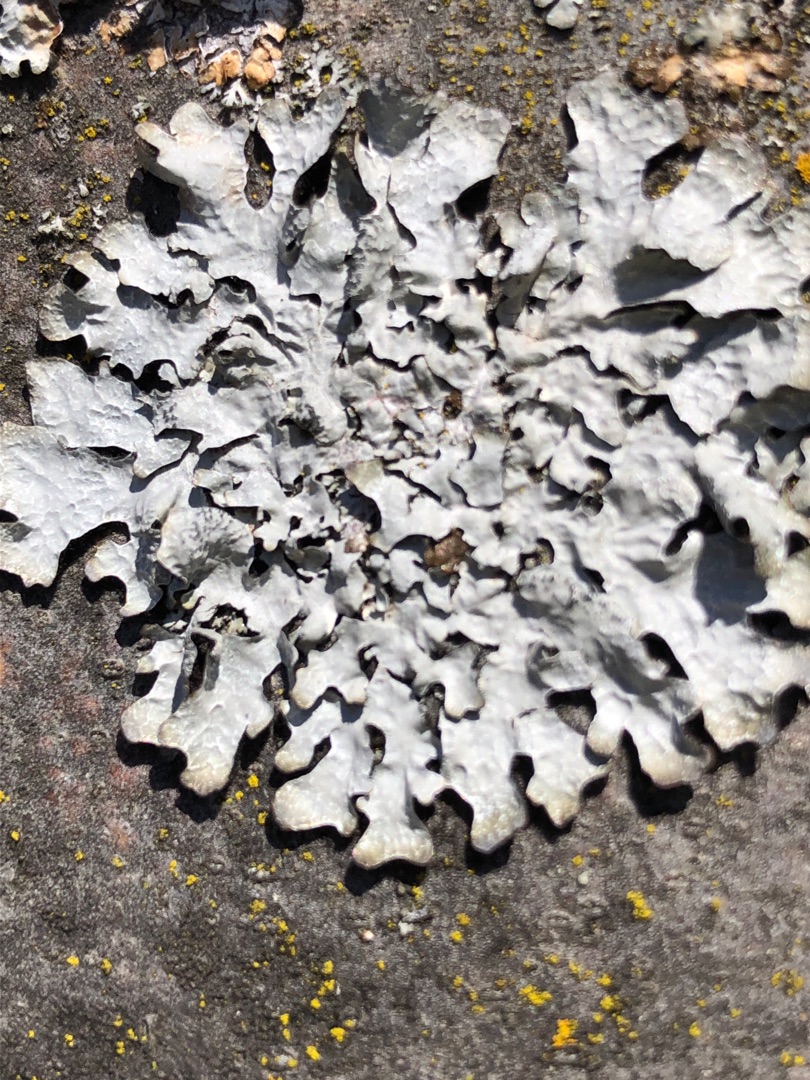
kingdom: Fungi
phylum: Ascomycota
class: Lecanoromycetes
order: Lecanorales
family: Parmeliaceae
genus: Parmelia
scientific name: Parmelia sulcata
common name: Rynket skållav
